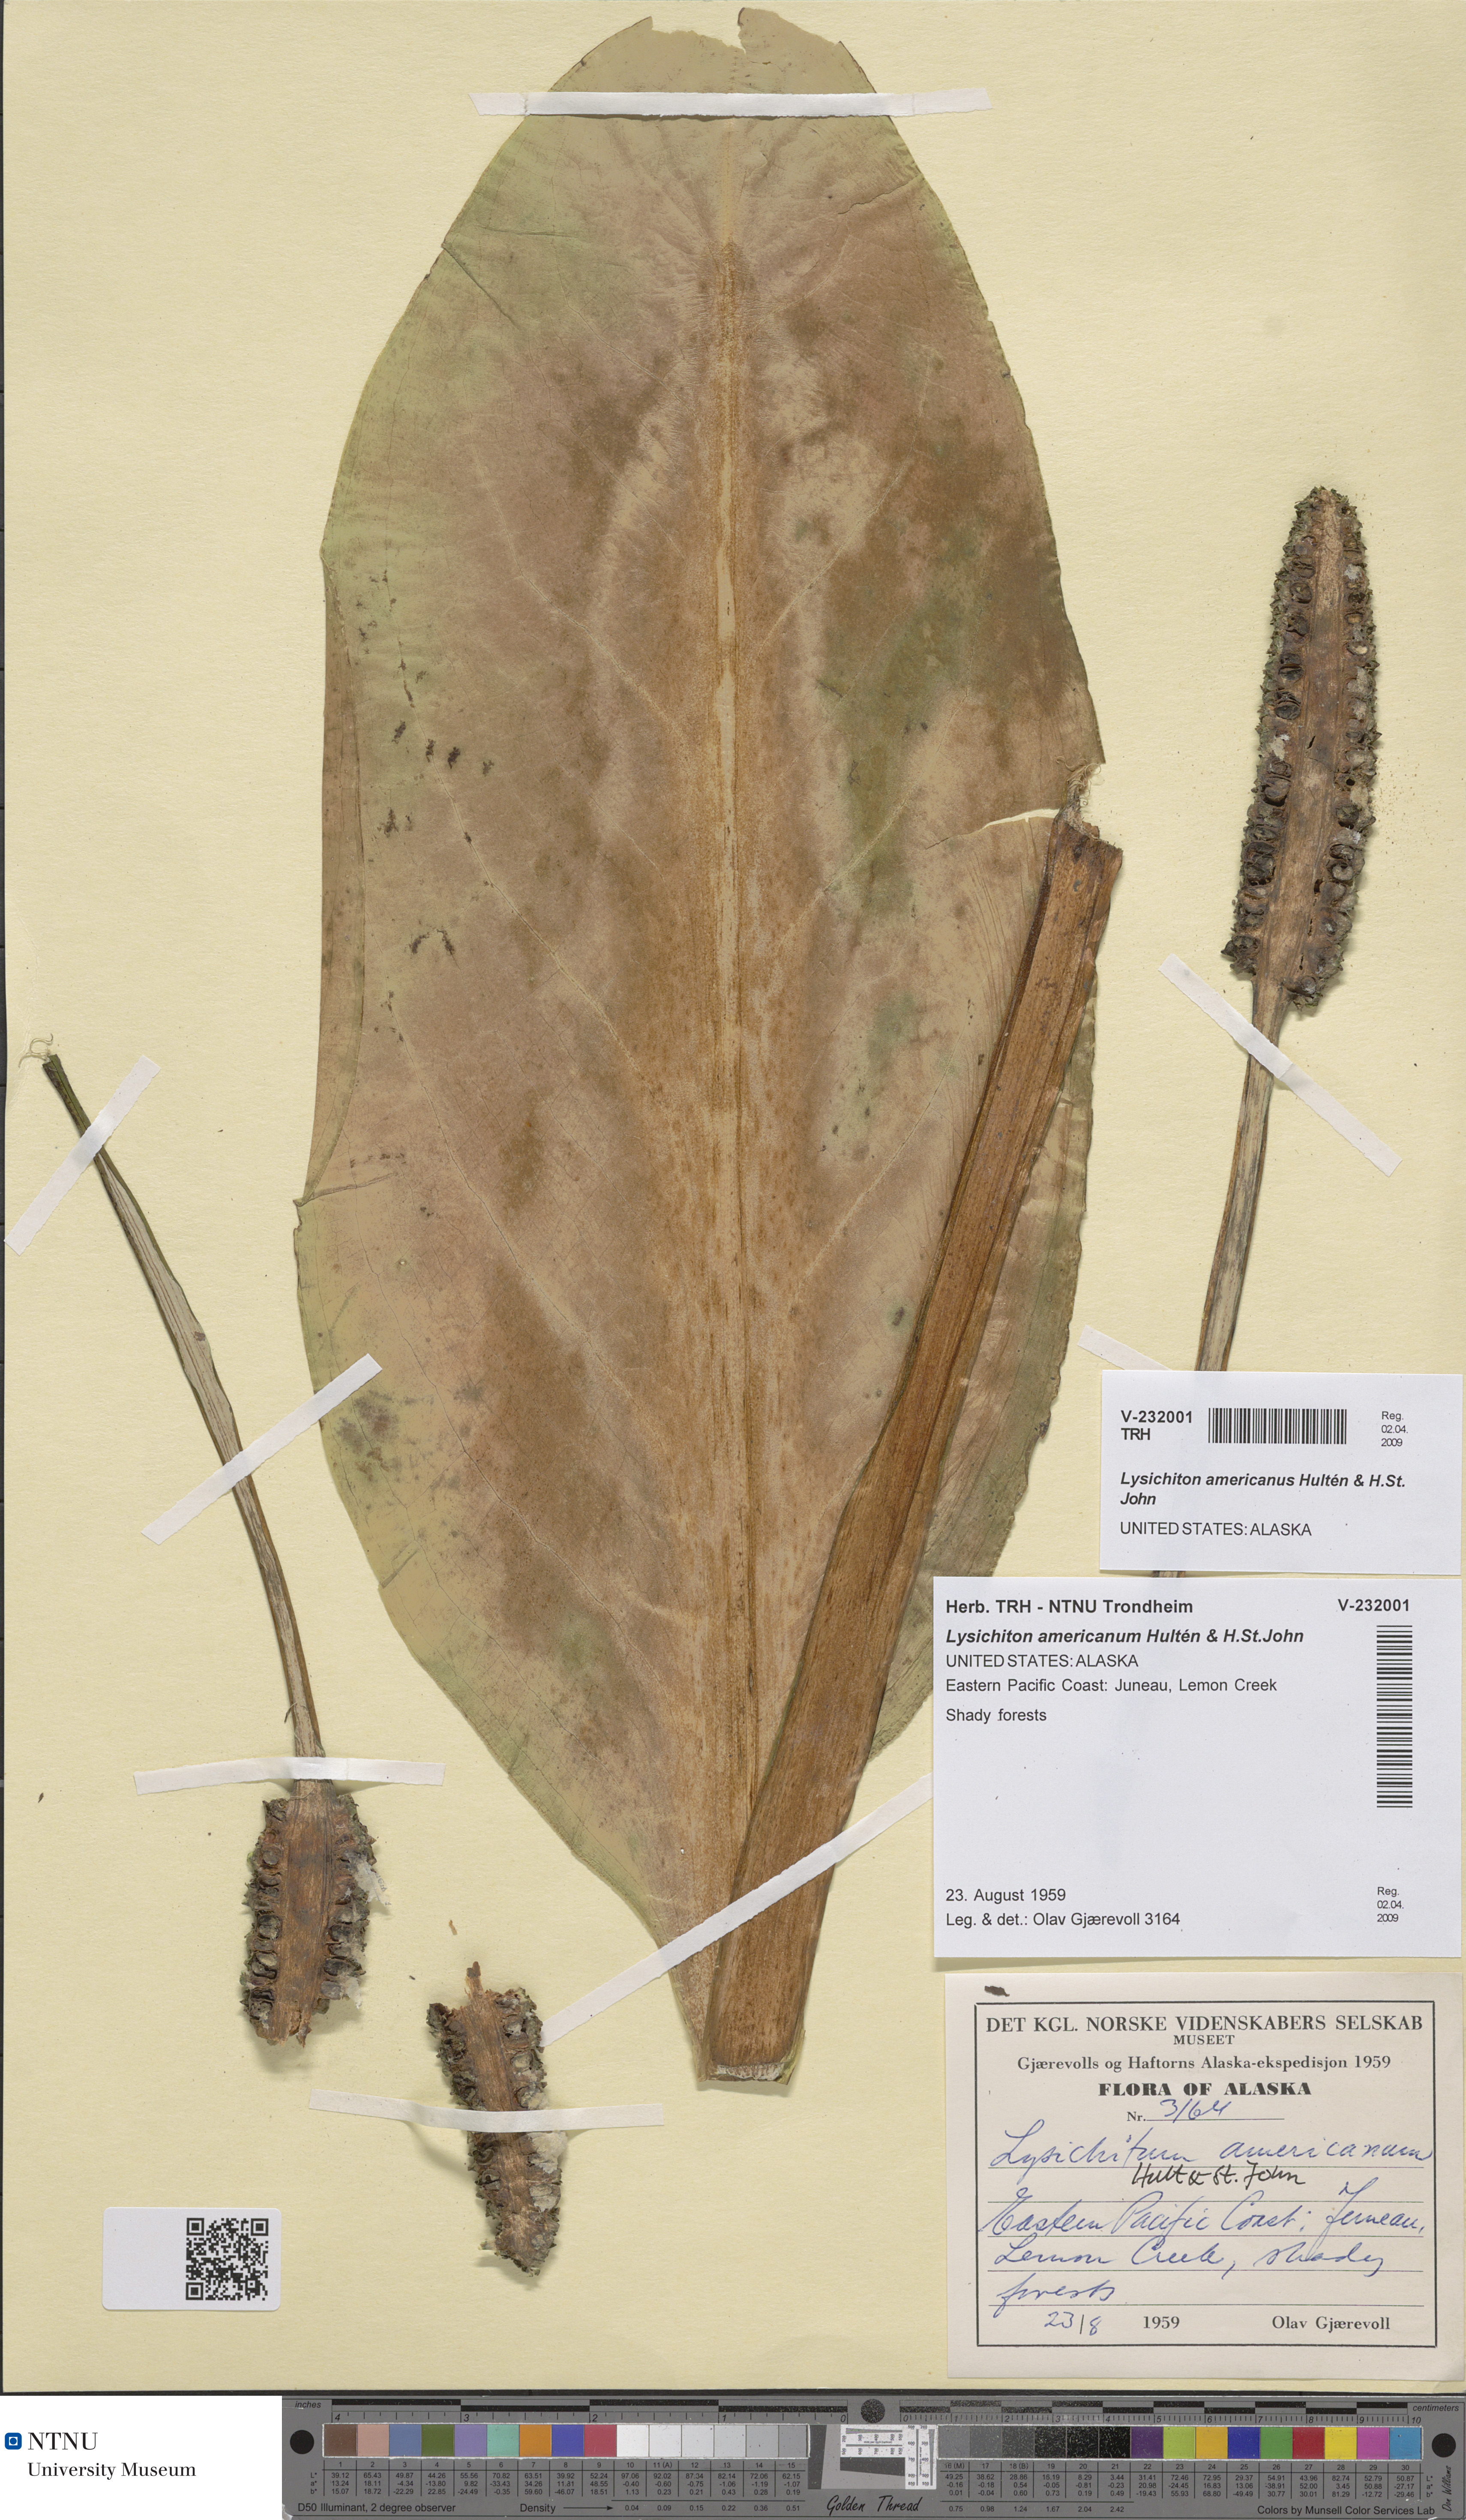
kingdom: Plantae
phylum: Tracheophyta
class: Liliopsida
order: Alismatales
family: Araceae
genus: Lysichiton
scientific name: Lysichiton americanus
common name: American skunk cabbage
